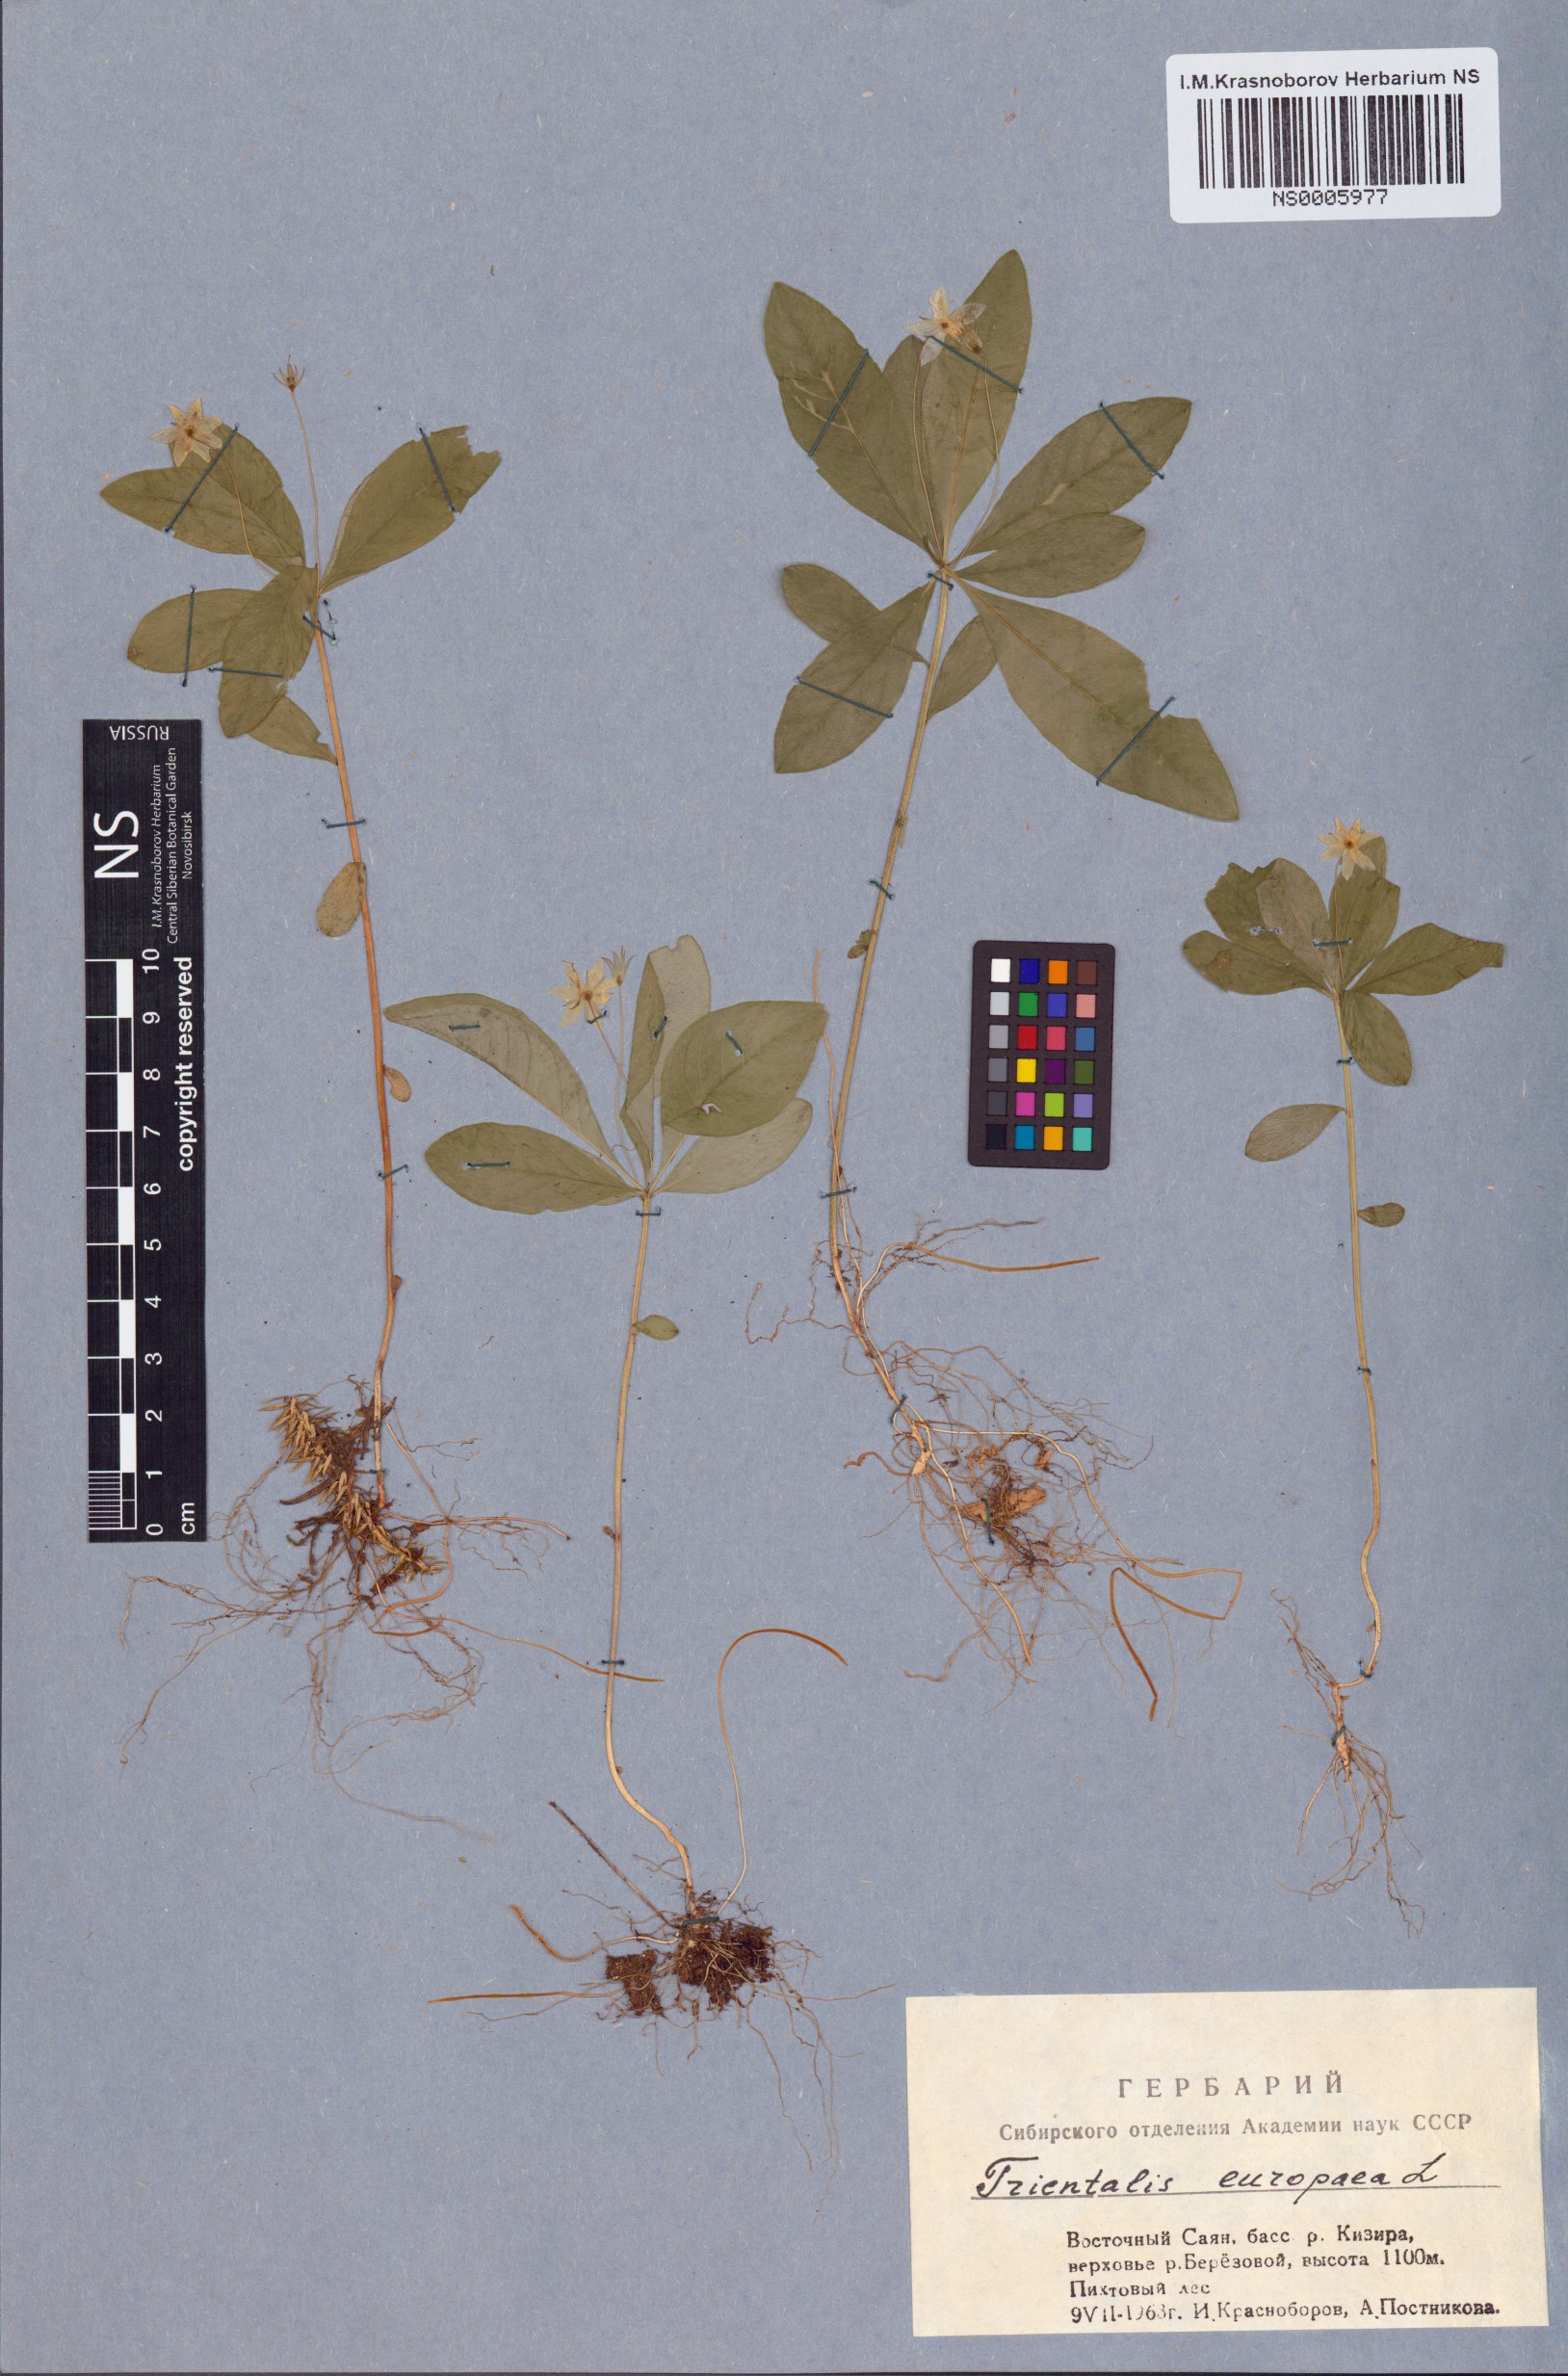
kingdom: Plantae
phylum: Tracheophyta
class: Magnoliopsida
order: Ericales
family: Primulaceae
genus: Lysimachia
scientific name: Lysimachia europaea
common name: Arctic starflower
